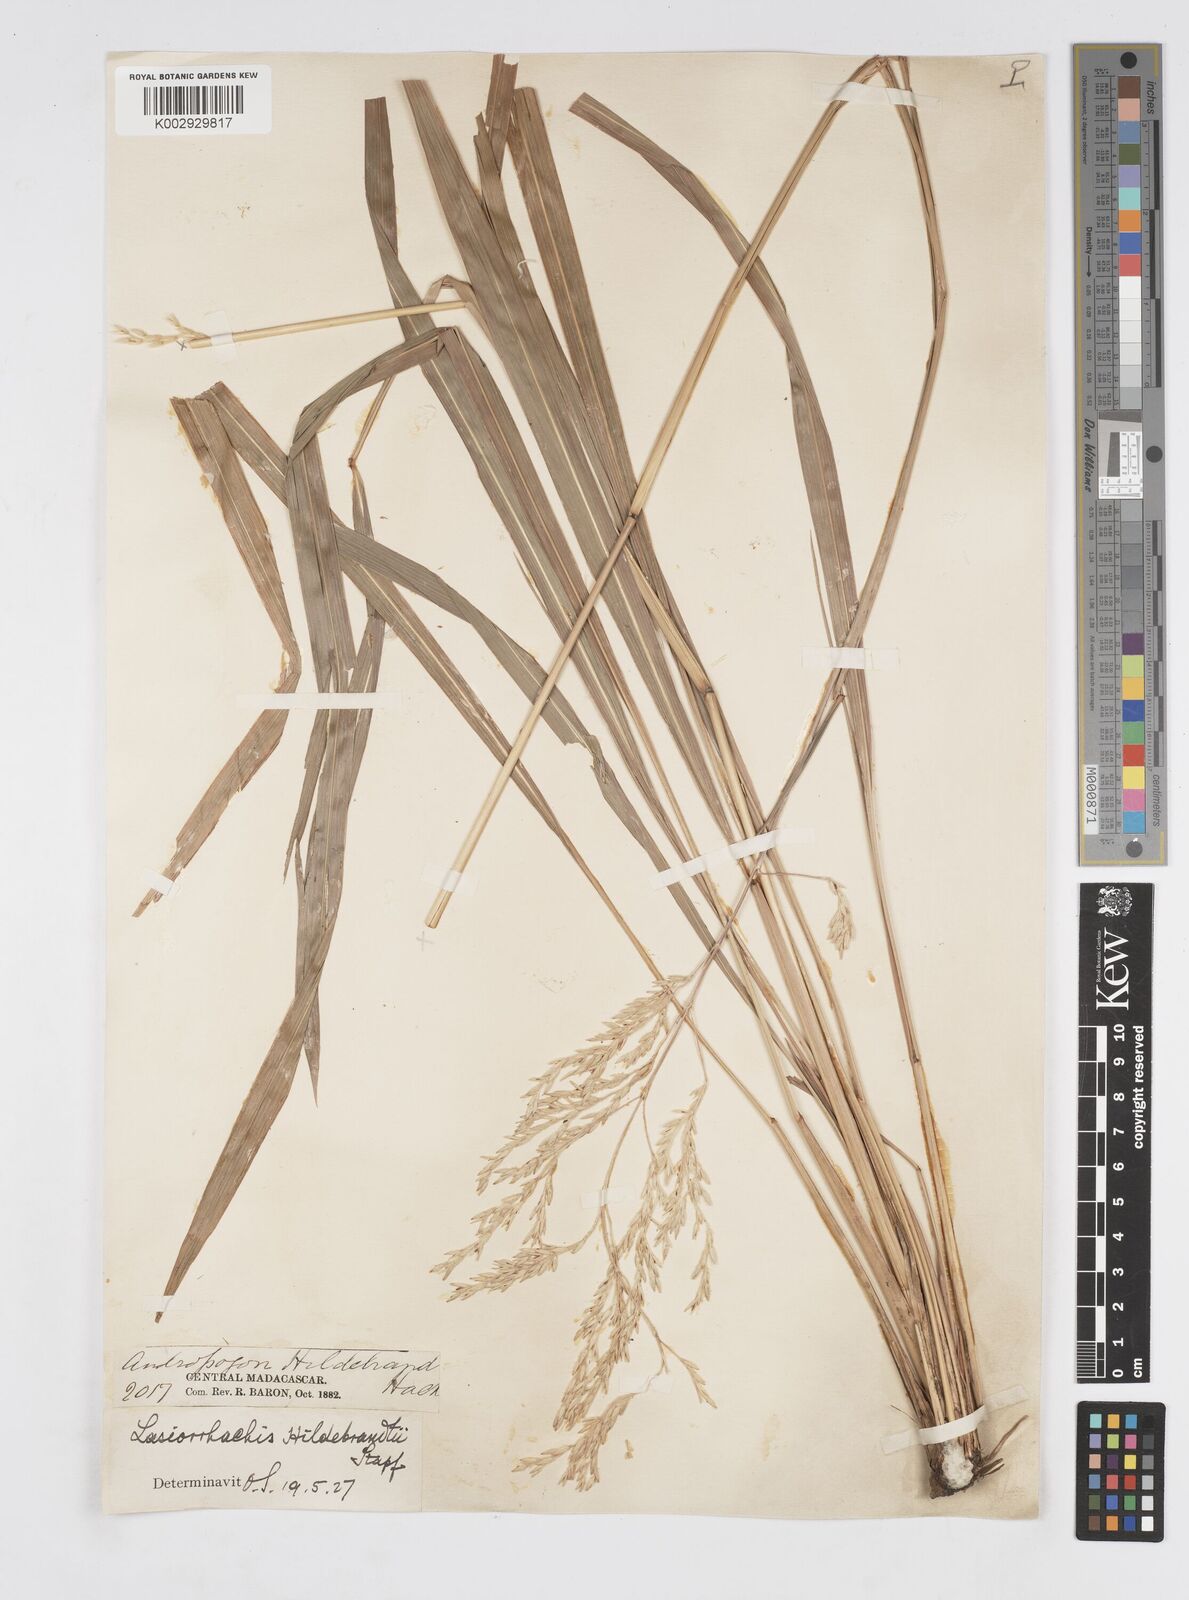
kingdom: Plantae
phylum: Tracheophyta
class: Liliopsida
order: Poales
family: Poaceae
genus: Lasiorhachis
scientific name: Lasiorhachis hildebrandtii
